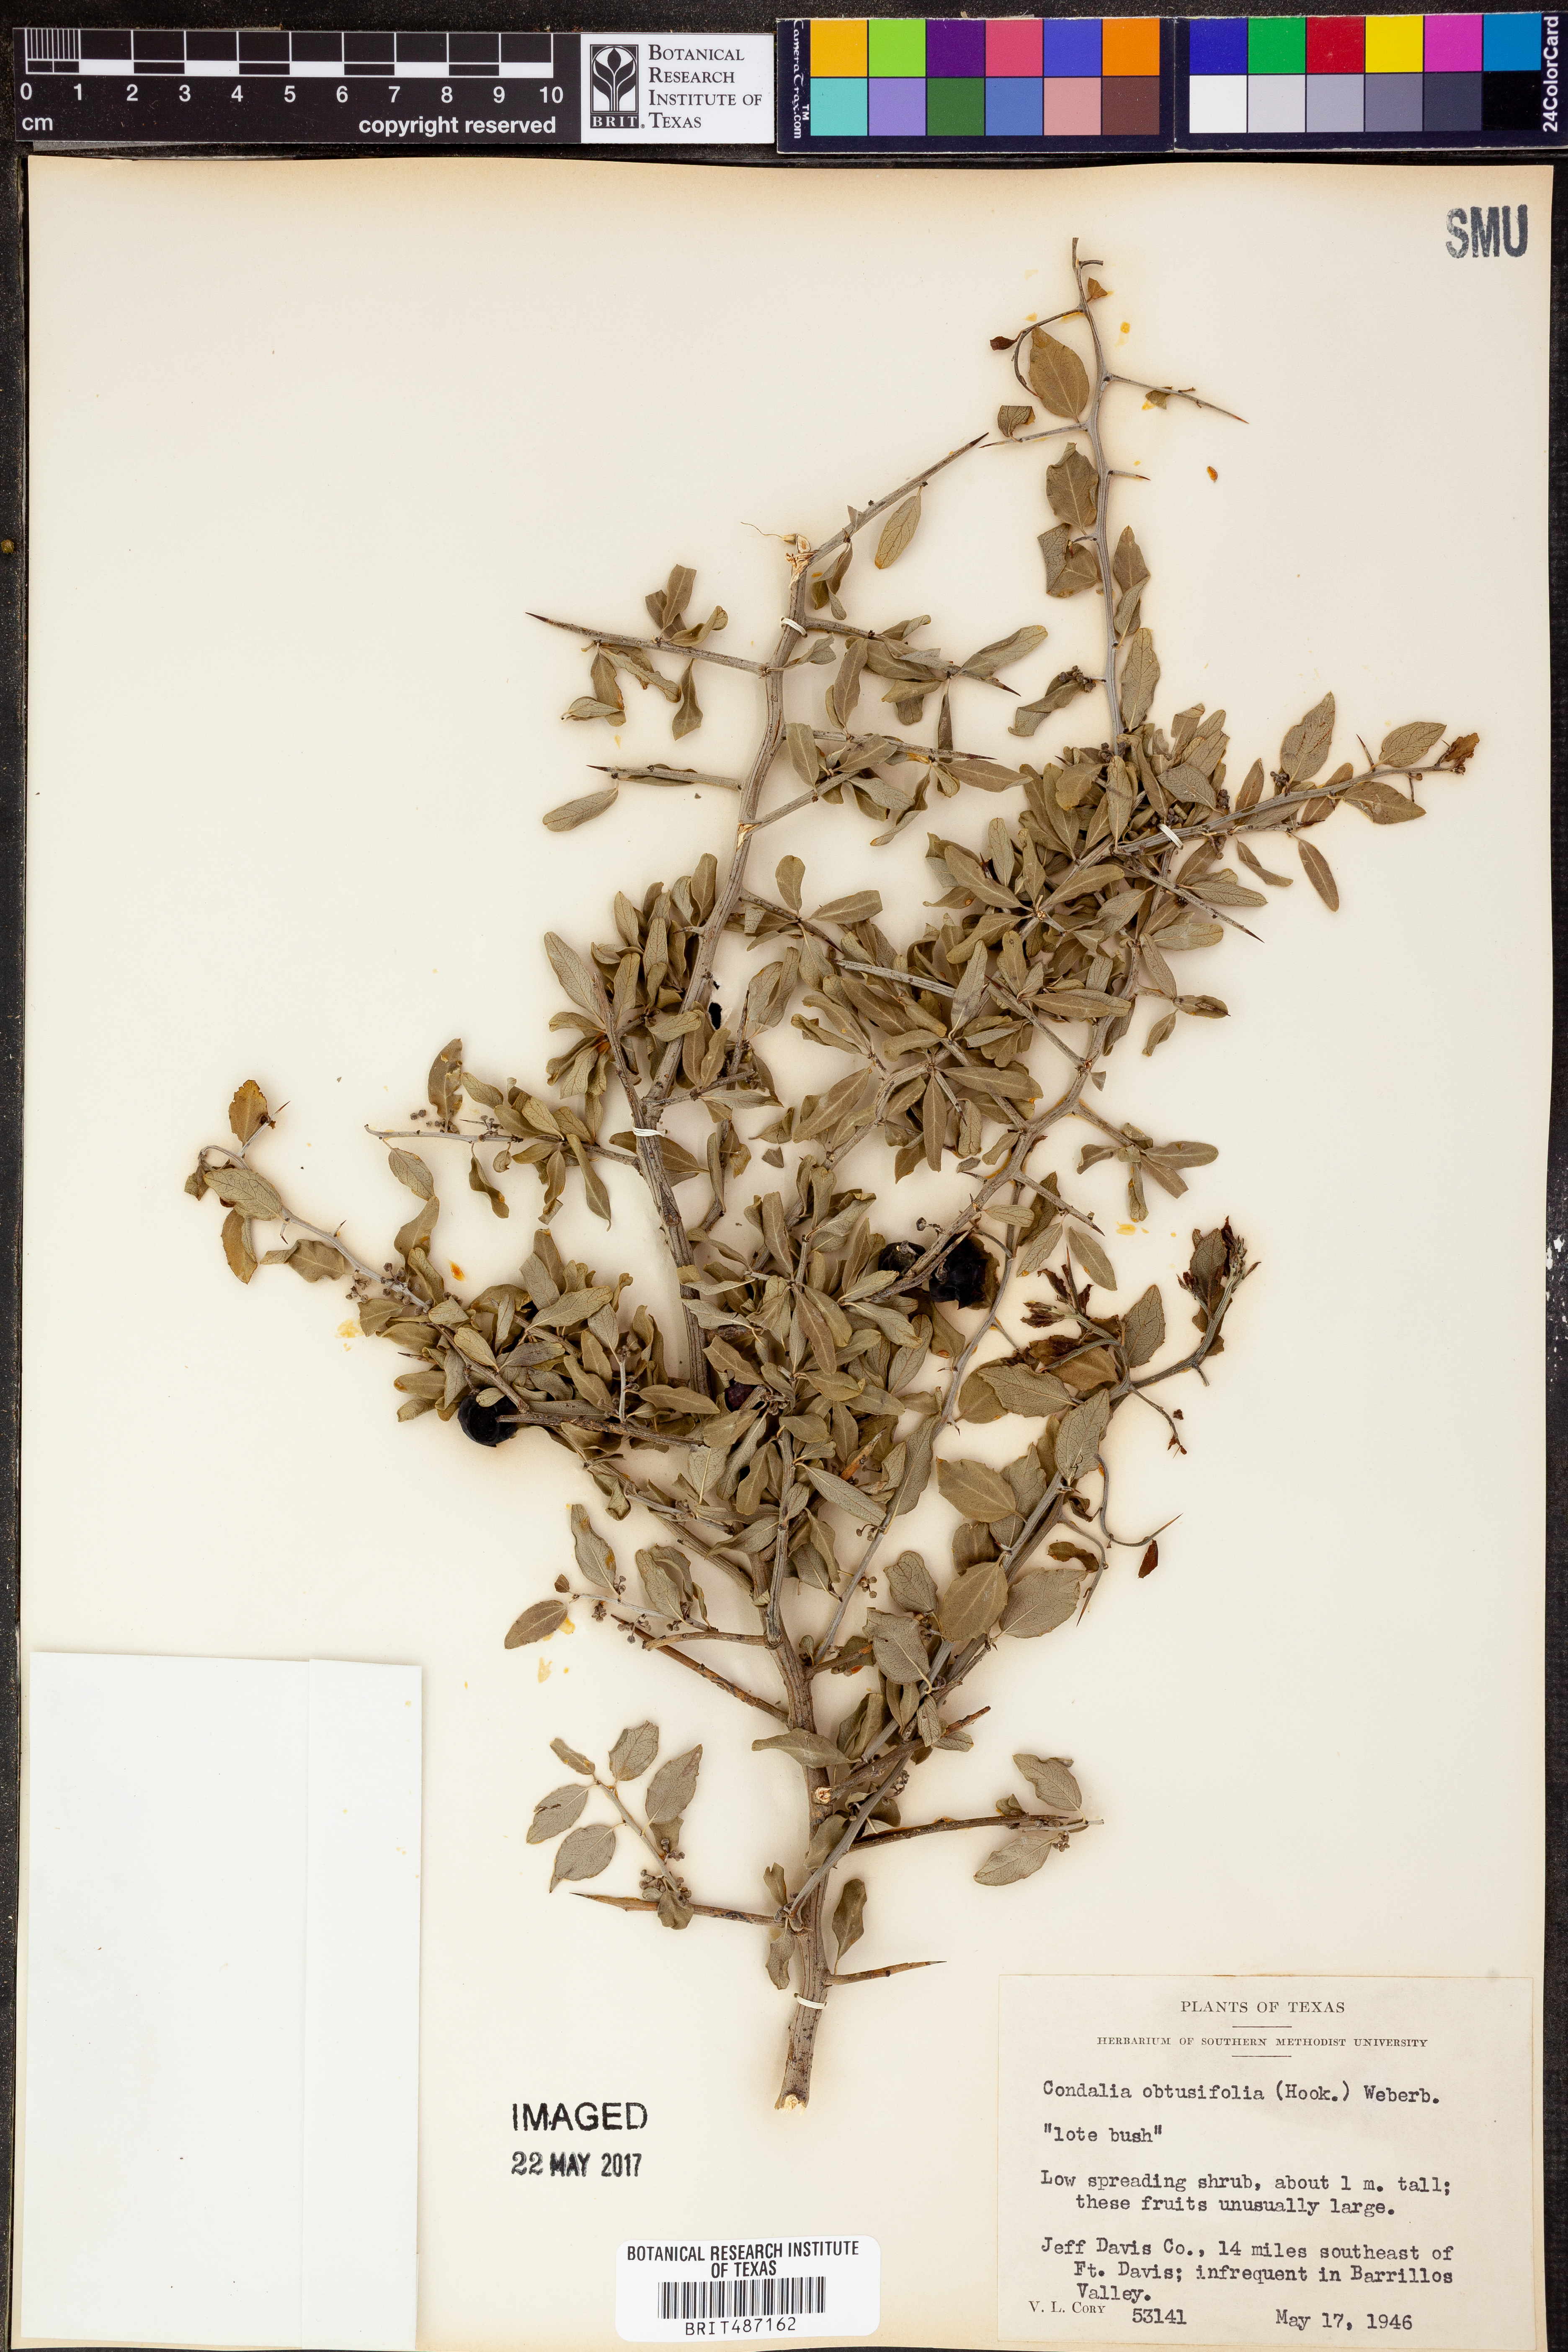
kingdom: Plantae
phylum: Tracheophyta
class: Magnoliopsida
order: Rosales
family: Rhamnaceae
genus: Sarcomphalus
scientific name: Sarcomphalus obtusifolius
